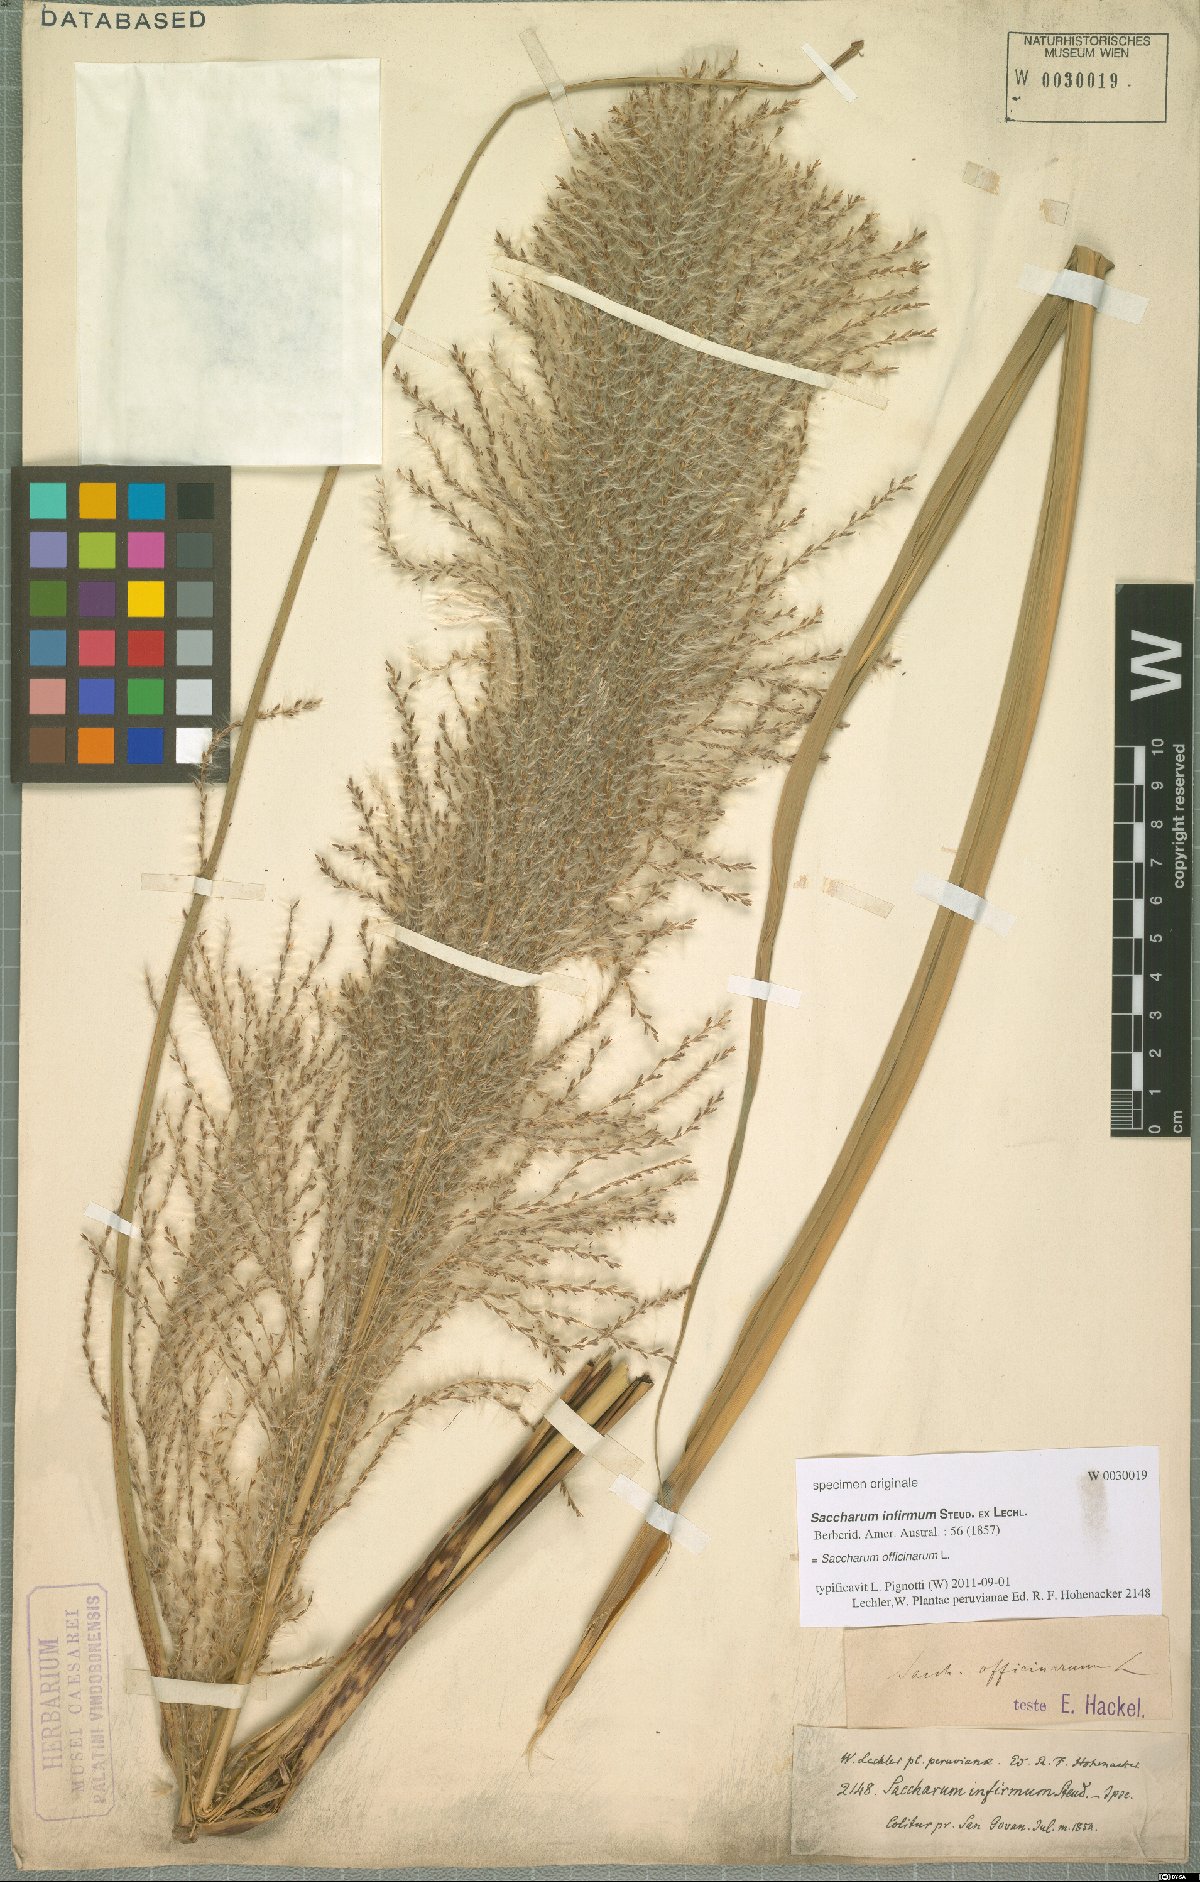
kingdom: Plantae
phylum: Tracheophyta
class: Liliopsida
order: Poales
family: Poaceae
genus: Saccharum
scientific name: Saccharum officinarum
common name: Sugarcane
